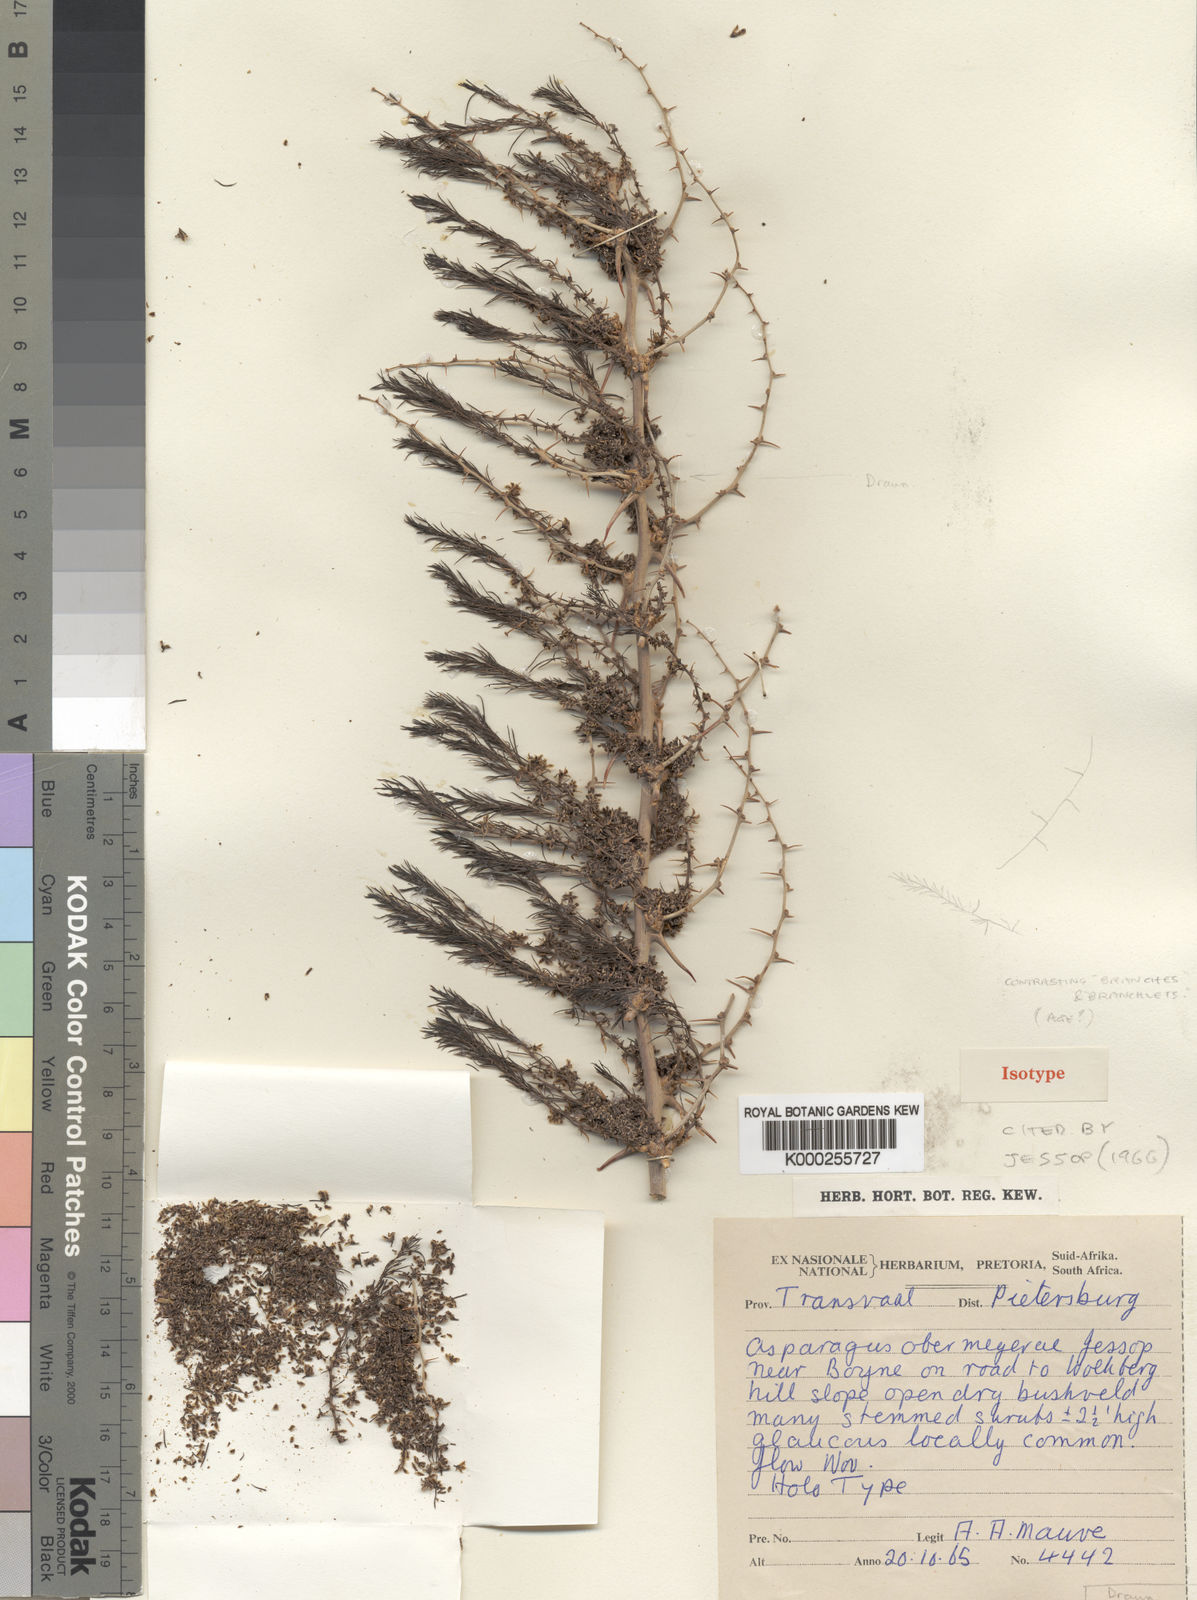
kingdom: Plantae
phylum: Tracheophyta
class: Liliopsida
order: Asparagales
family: Asparagaceae
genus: Asparagus
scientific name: Asparagus schroederi
